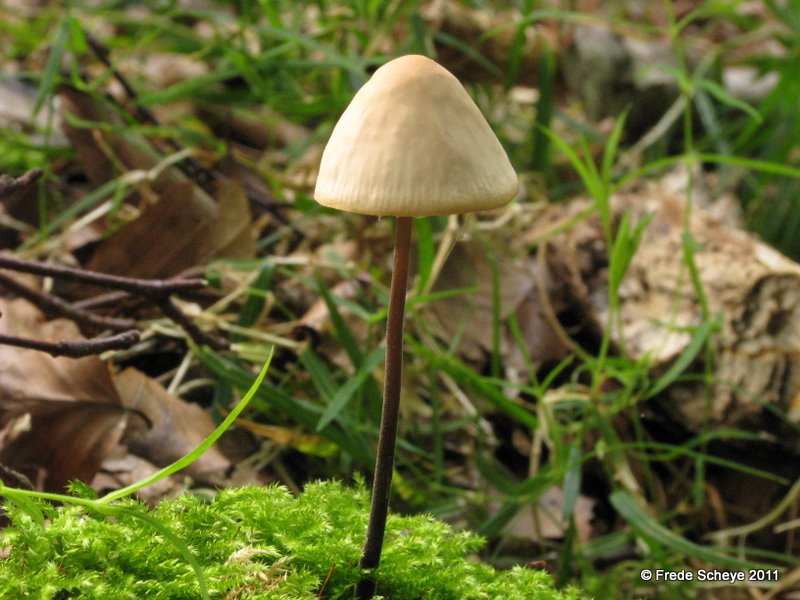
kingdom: Fungi
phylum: Basidiomycota
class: Agaricomycetes
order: Agaricales
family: Omphalotaceae
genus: Mycetinis
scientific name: Mycetinis alliaceus
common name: stor løghat
